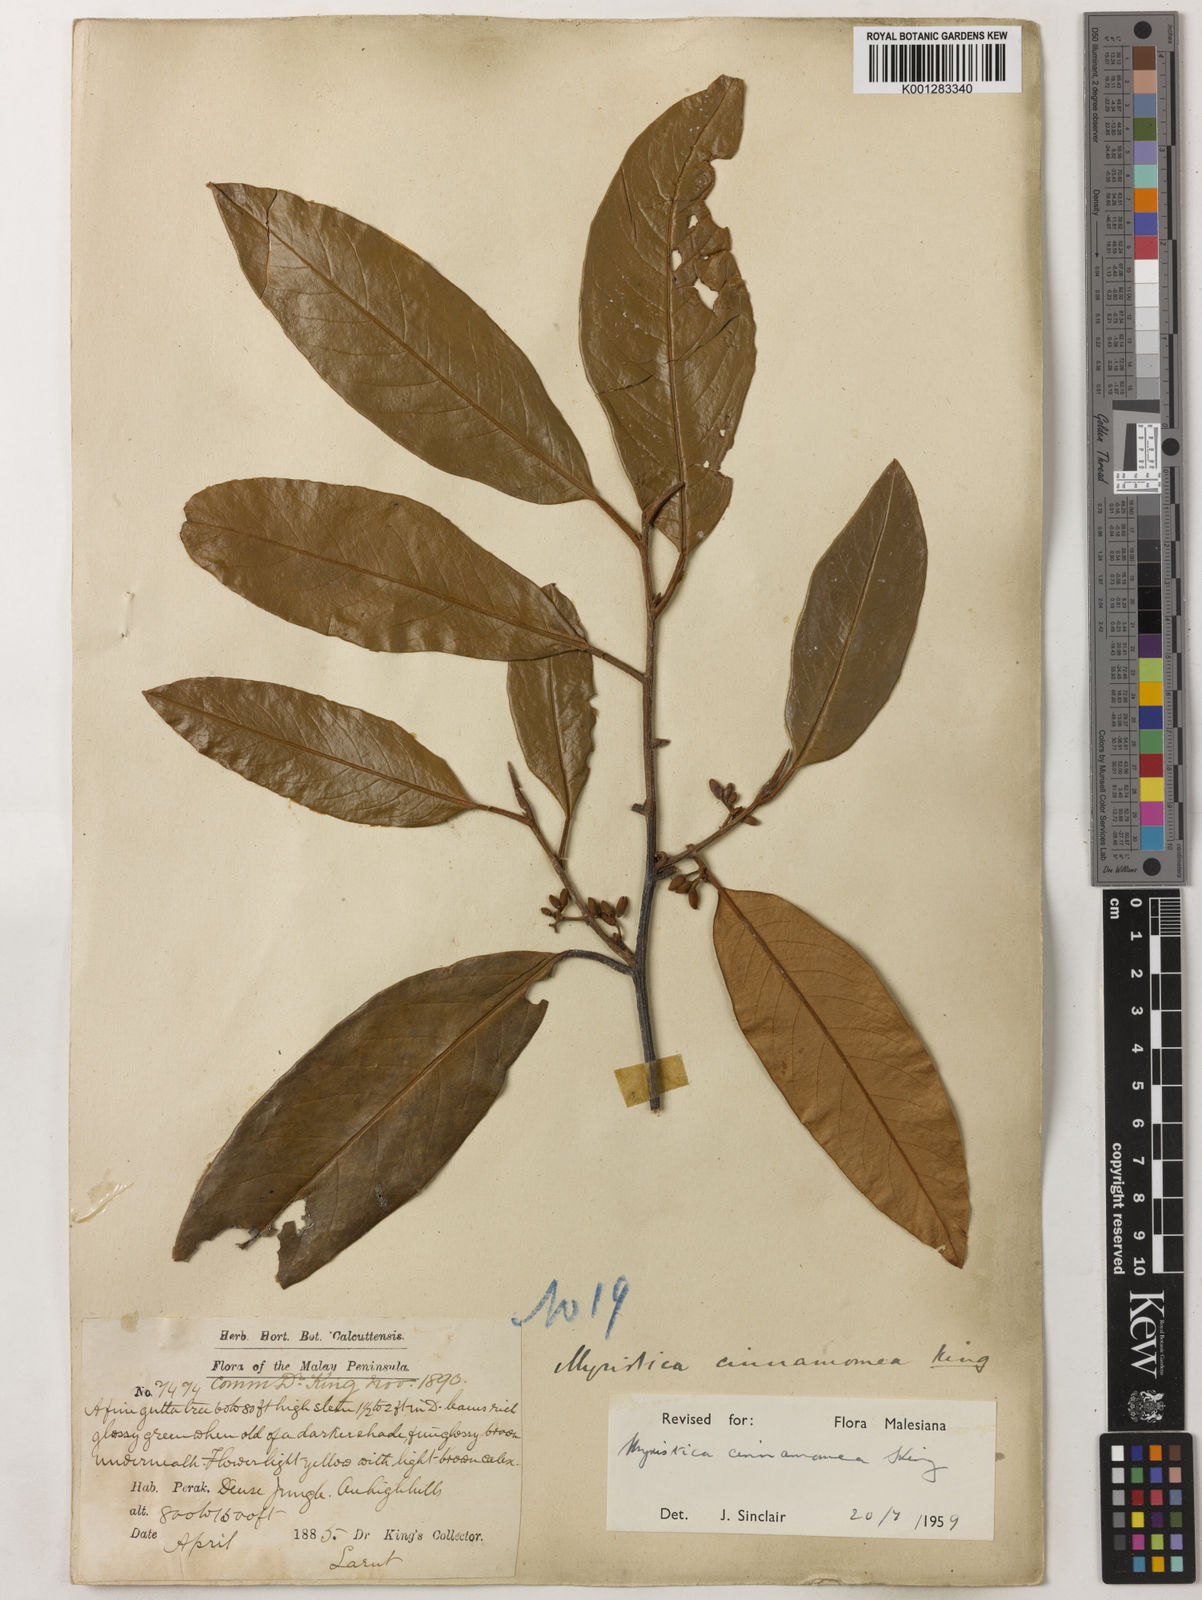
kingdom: Plantae
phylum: Tracheophyta
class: Magnoliopsida
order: Magnoliales
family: Myristicaceae
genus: Myristica
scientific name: Myristica cinnamomea
